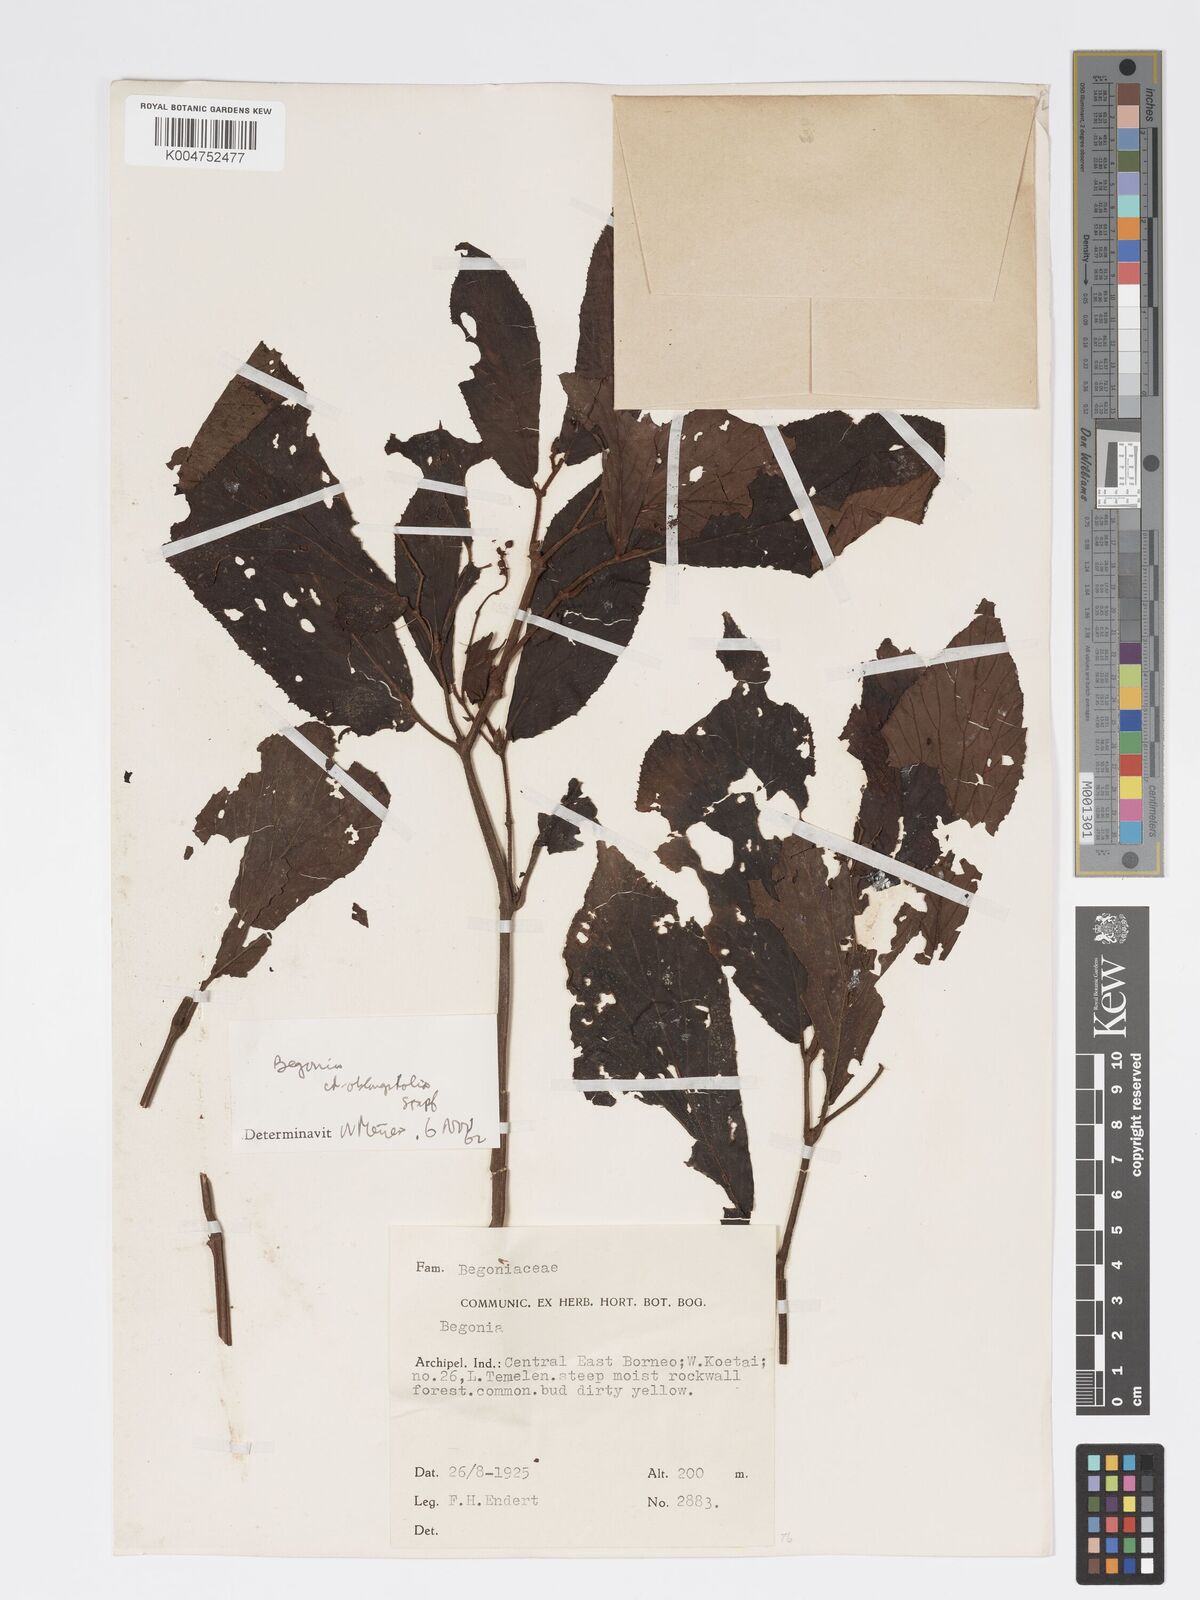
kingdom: Plantae
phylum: Tracheophyta
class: Magnoliopsida
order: Cucurbitales
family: Begoniaceae
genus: Begonia
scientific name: Begonia oblongifolia
